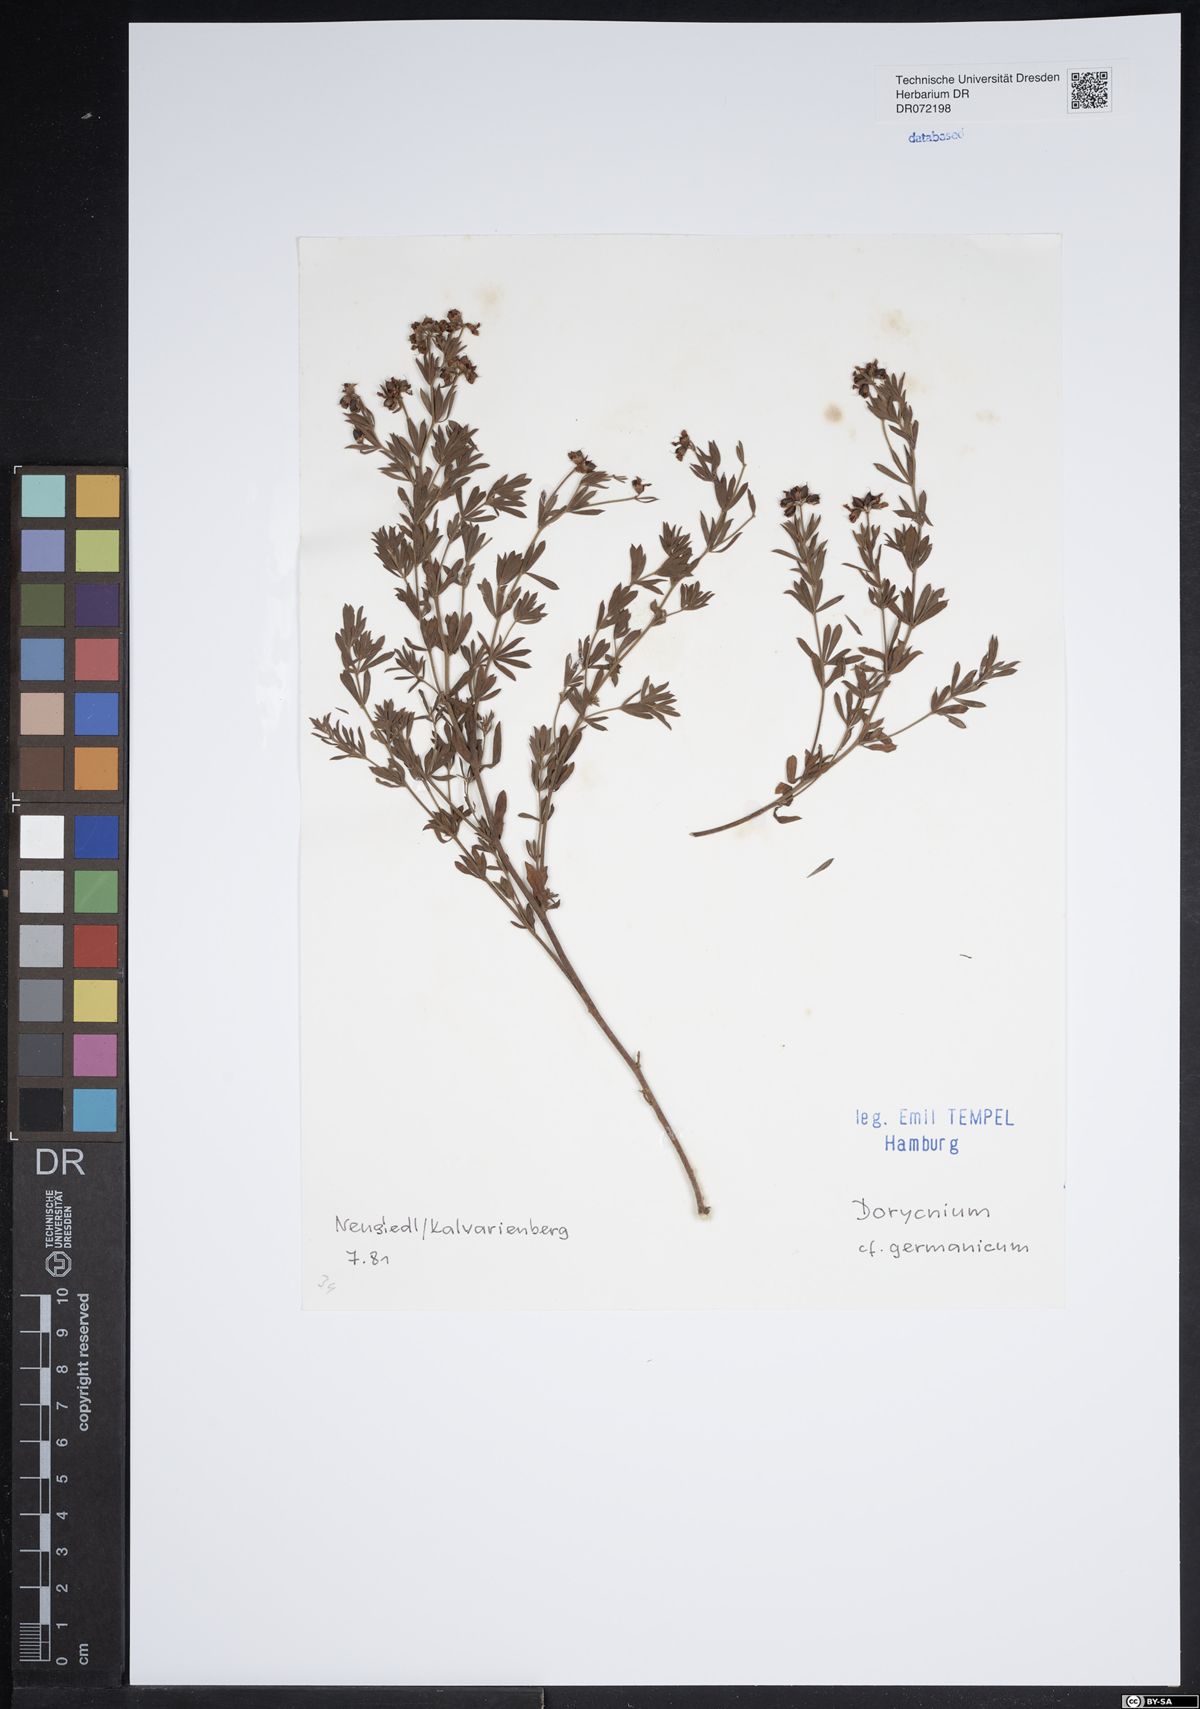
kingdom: Plantae
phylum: Tracheophyta
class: Magnoliopsida
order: Fabales
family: Fabaceae
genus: Lotus
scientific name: Lotus germanicus
